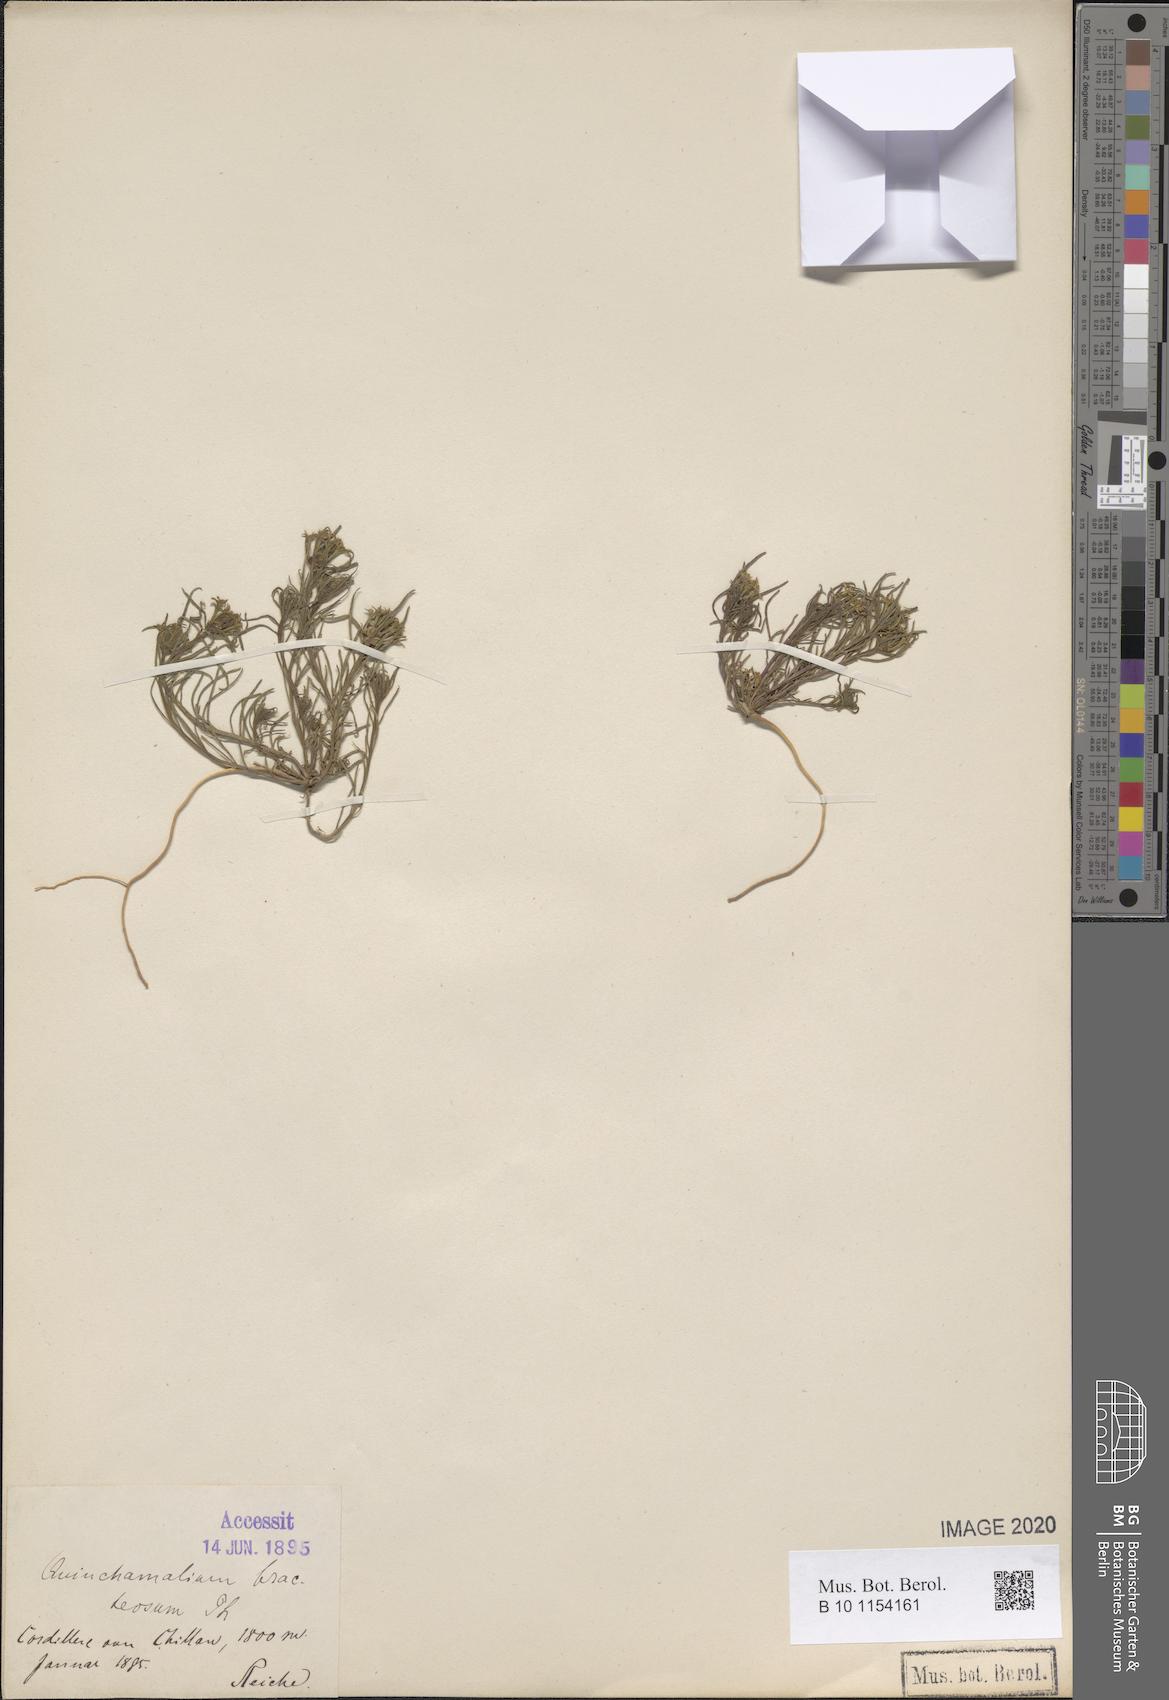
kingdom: Plantae
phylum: Tracheophyta
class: Magnoliopsida
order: Santalales
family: Schoepfiaceae
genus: Quinchamalium
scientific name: Quinchamalium chilense
